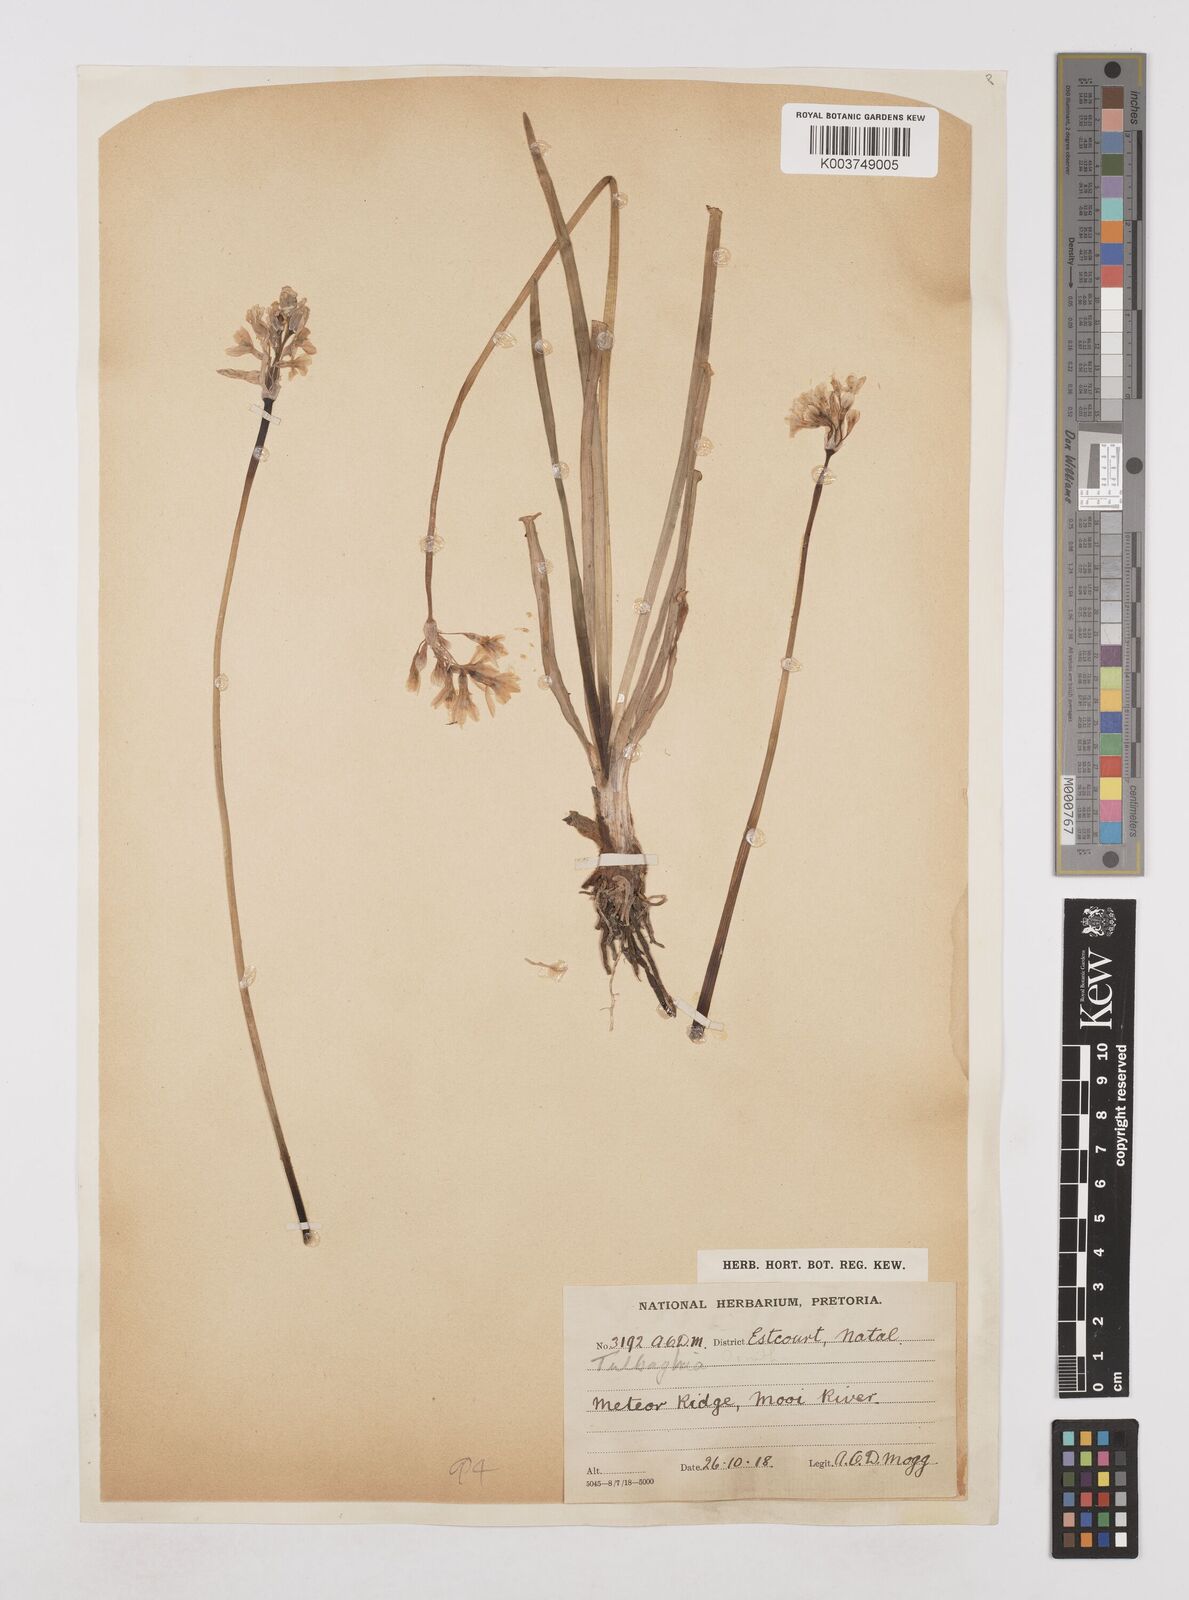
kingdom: Plantae
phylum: Tracheophyta
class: Liliopsida
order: Asparagales
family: Amaryllidaceae
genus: Tulbaghia
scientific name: Tulbaghia natalensis
